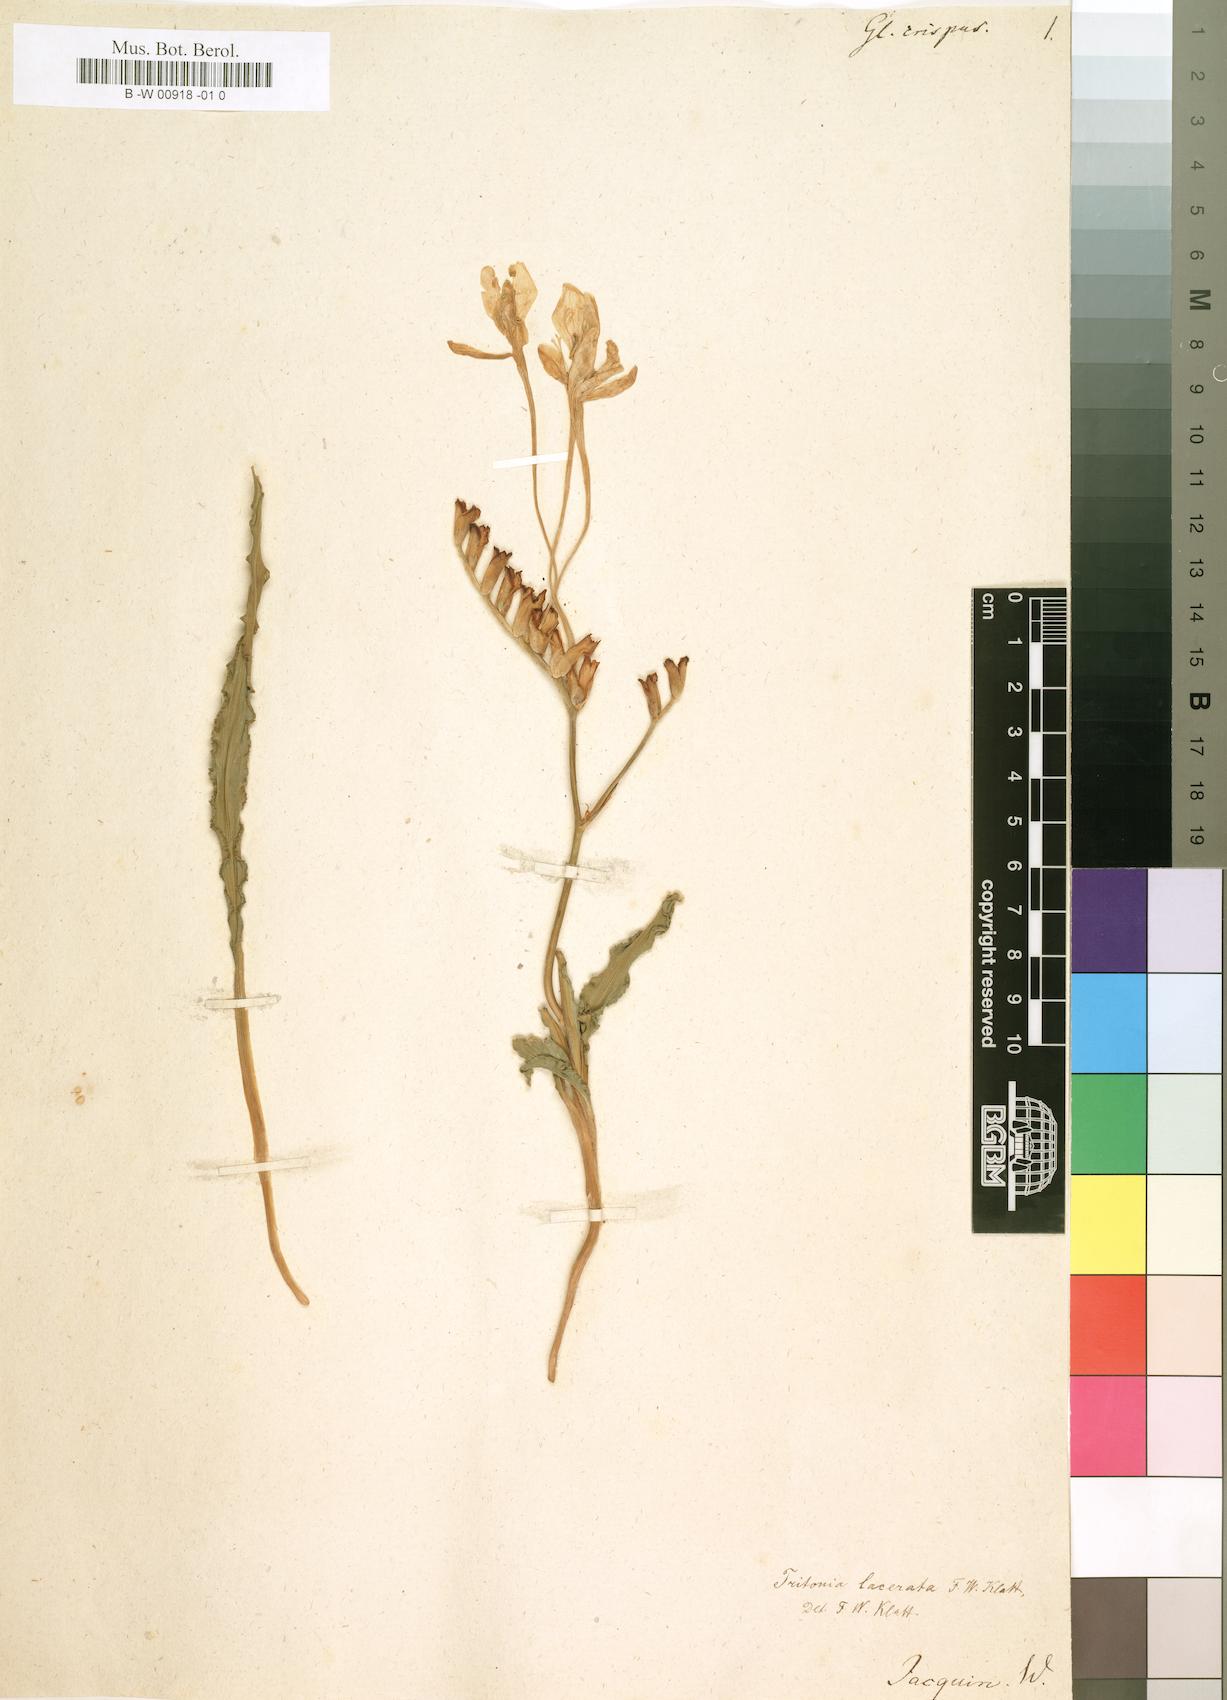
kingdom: Plantae
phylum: Tracheophyta
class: Liliopsida
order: Asparagales
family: Iridaceae
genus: Tritonia
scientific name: Tritonia undulata
